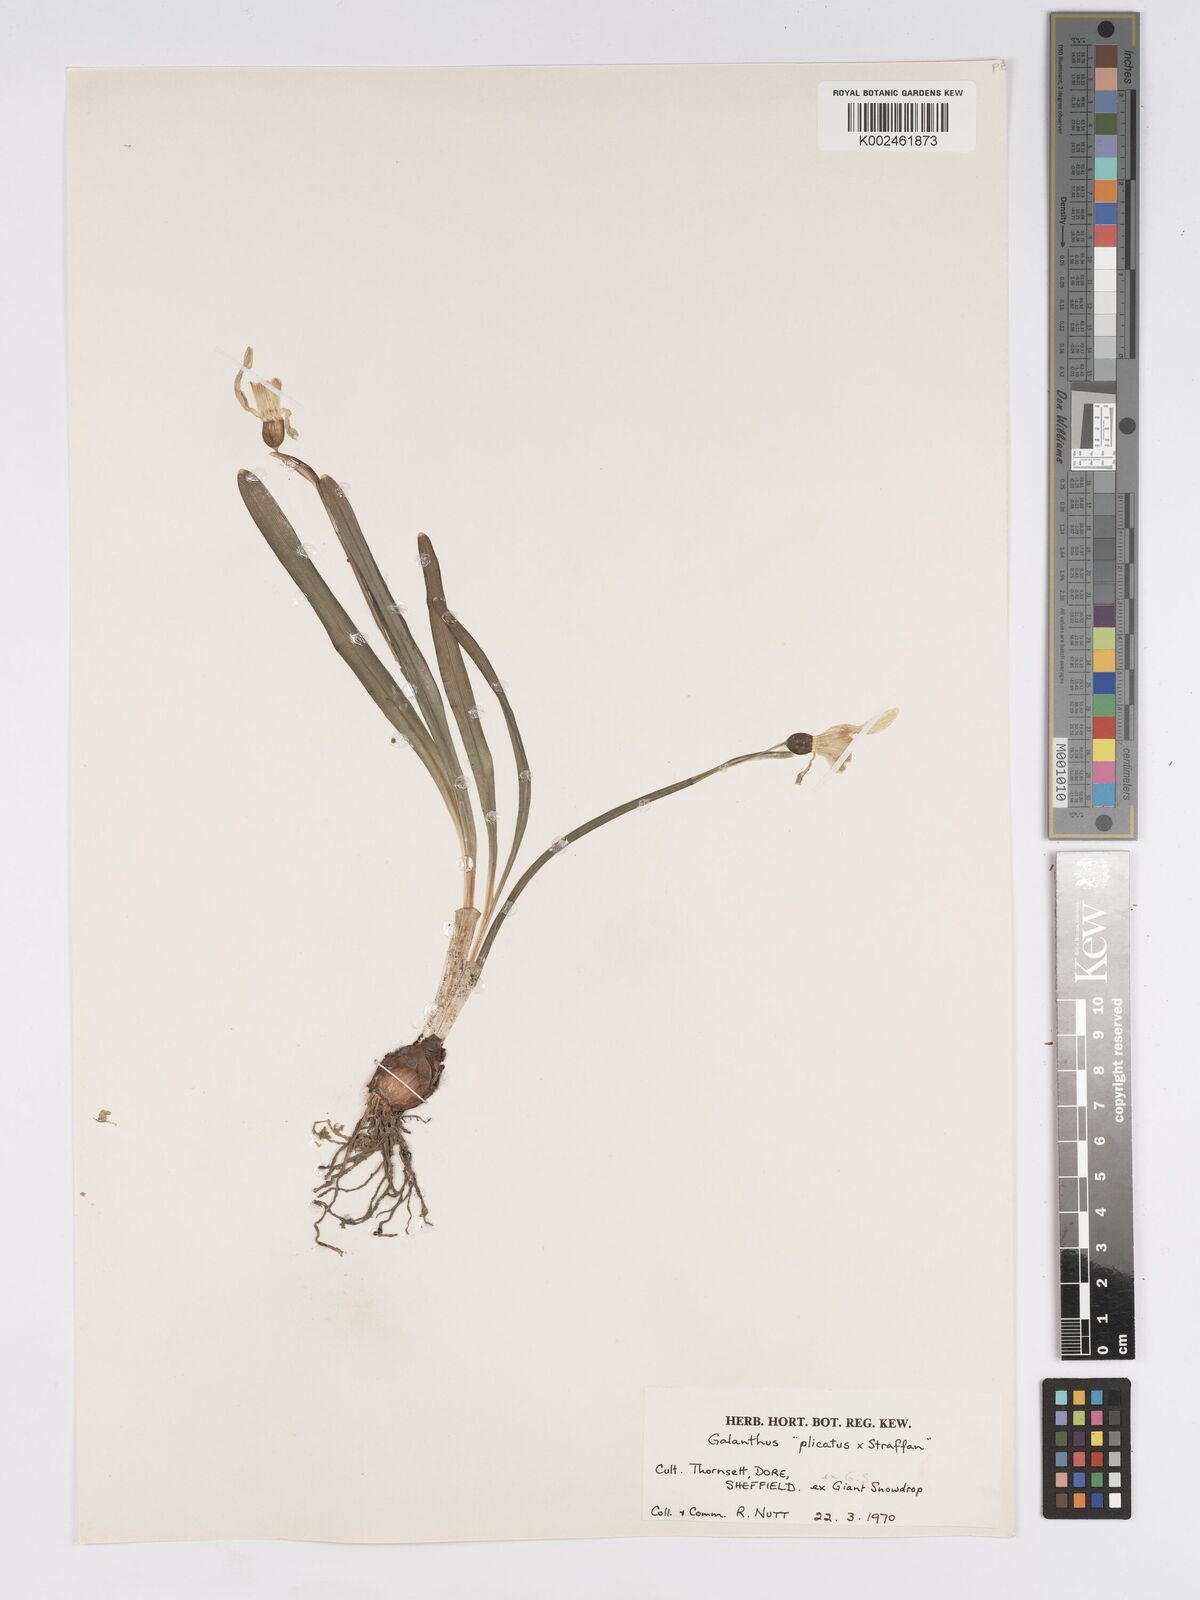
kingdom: Plantae
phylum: Tracheophyta
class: Liliopsida
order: Asparagales
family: Amaryllidaceae
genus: Galanthus
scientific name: Galanthus plicatus
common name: Pleated snowdrop
